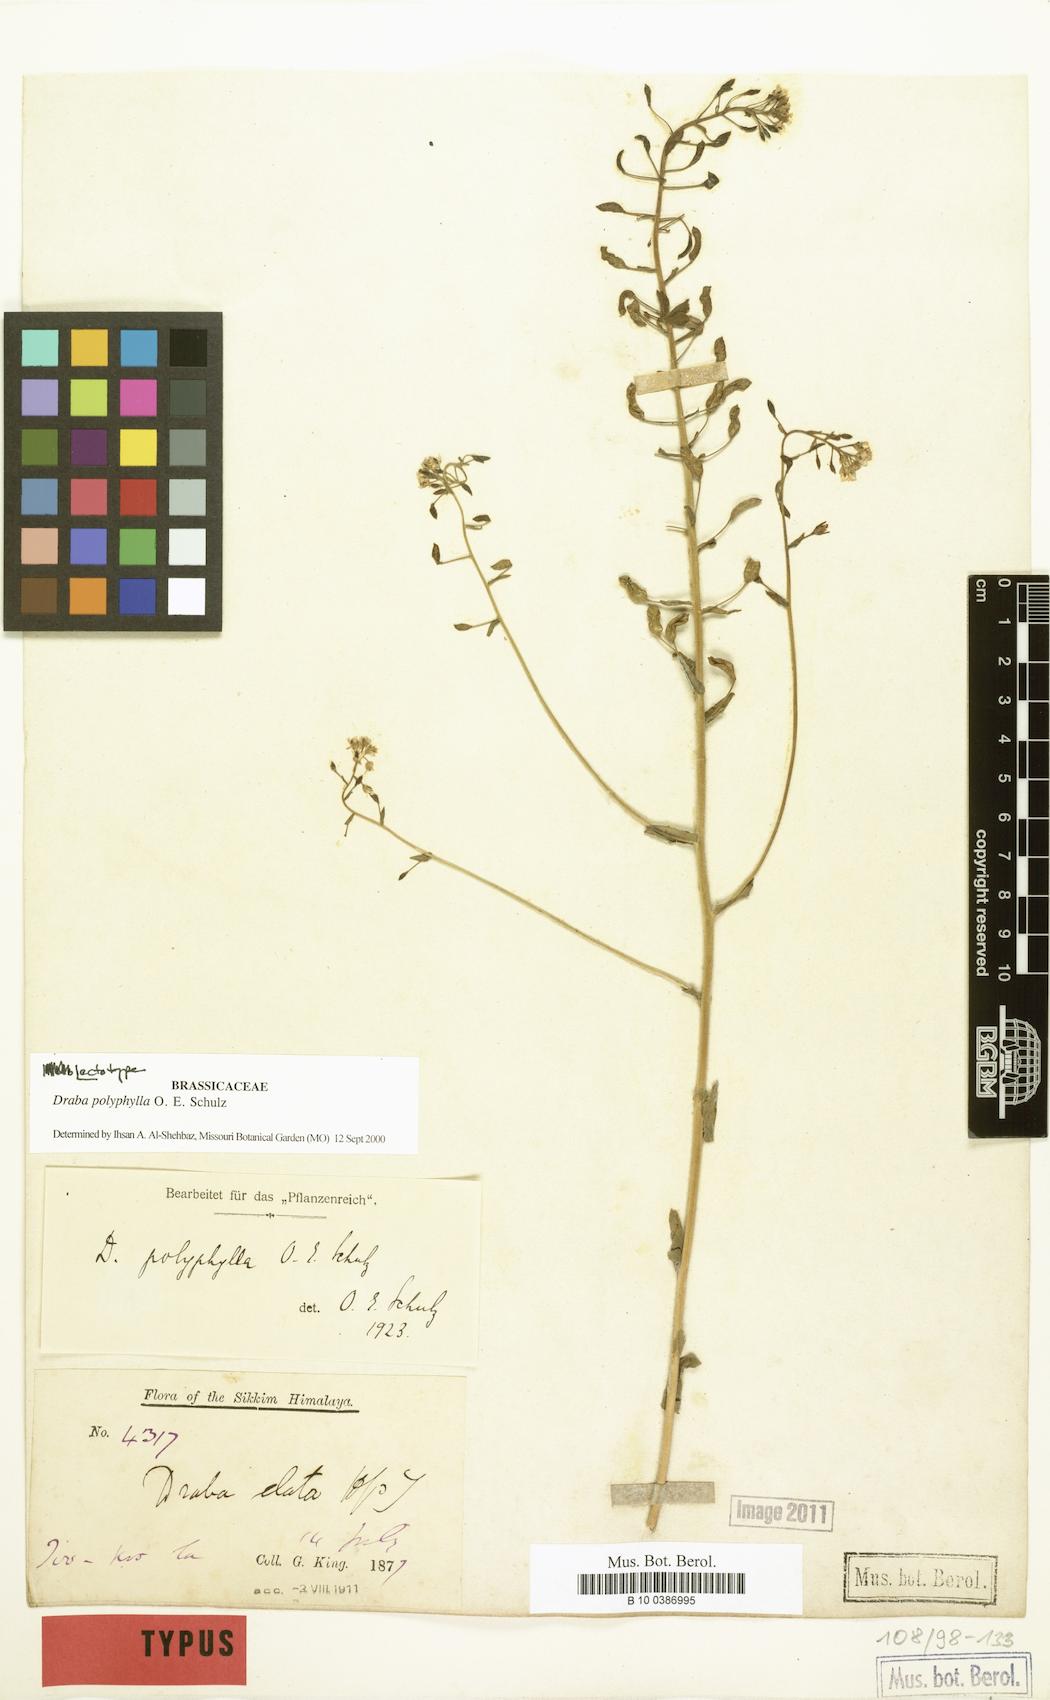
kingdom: Plantae
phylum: Tracheophyta
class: Magnoliopsida
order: Brassicales
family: Brassicaceae
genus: Draba
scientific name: Draba polyphylla
